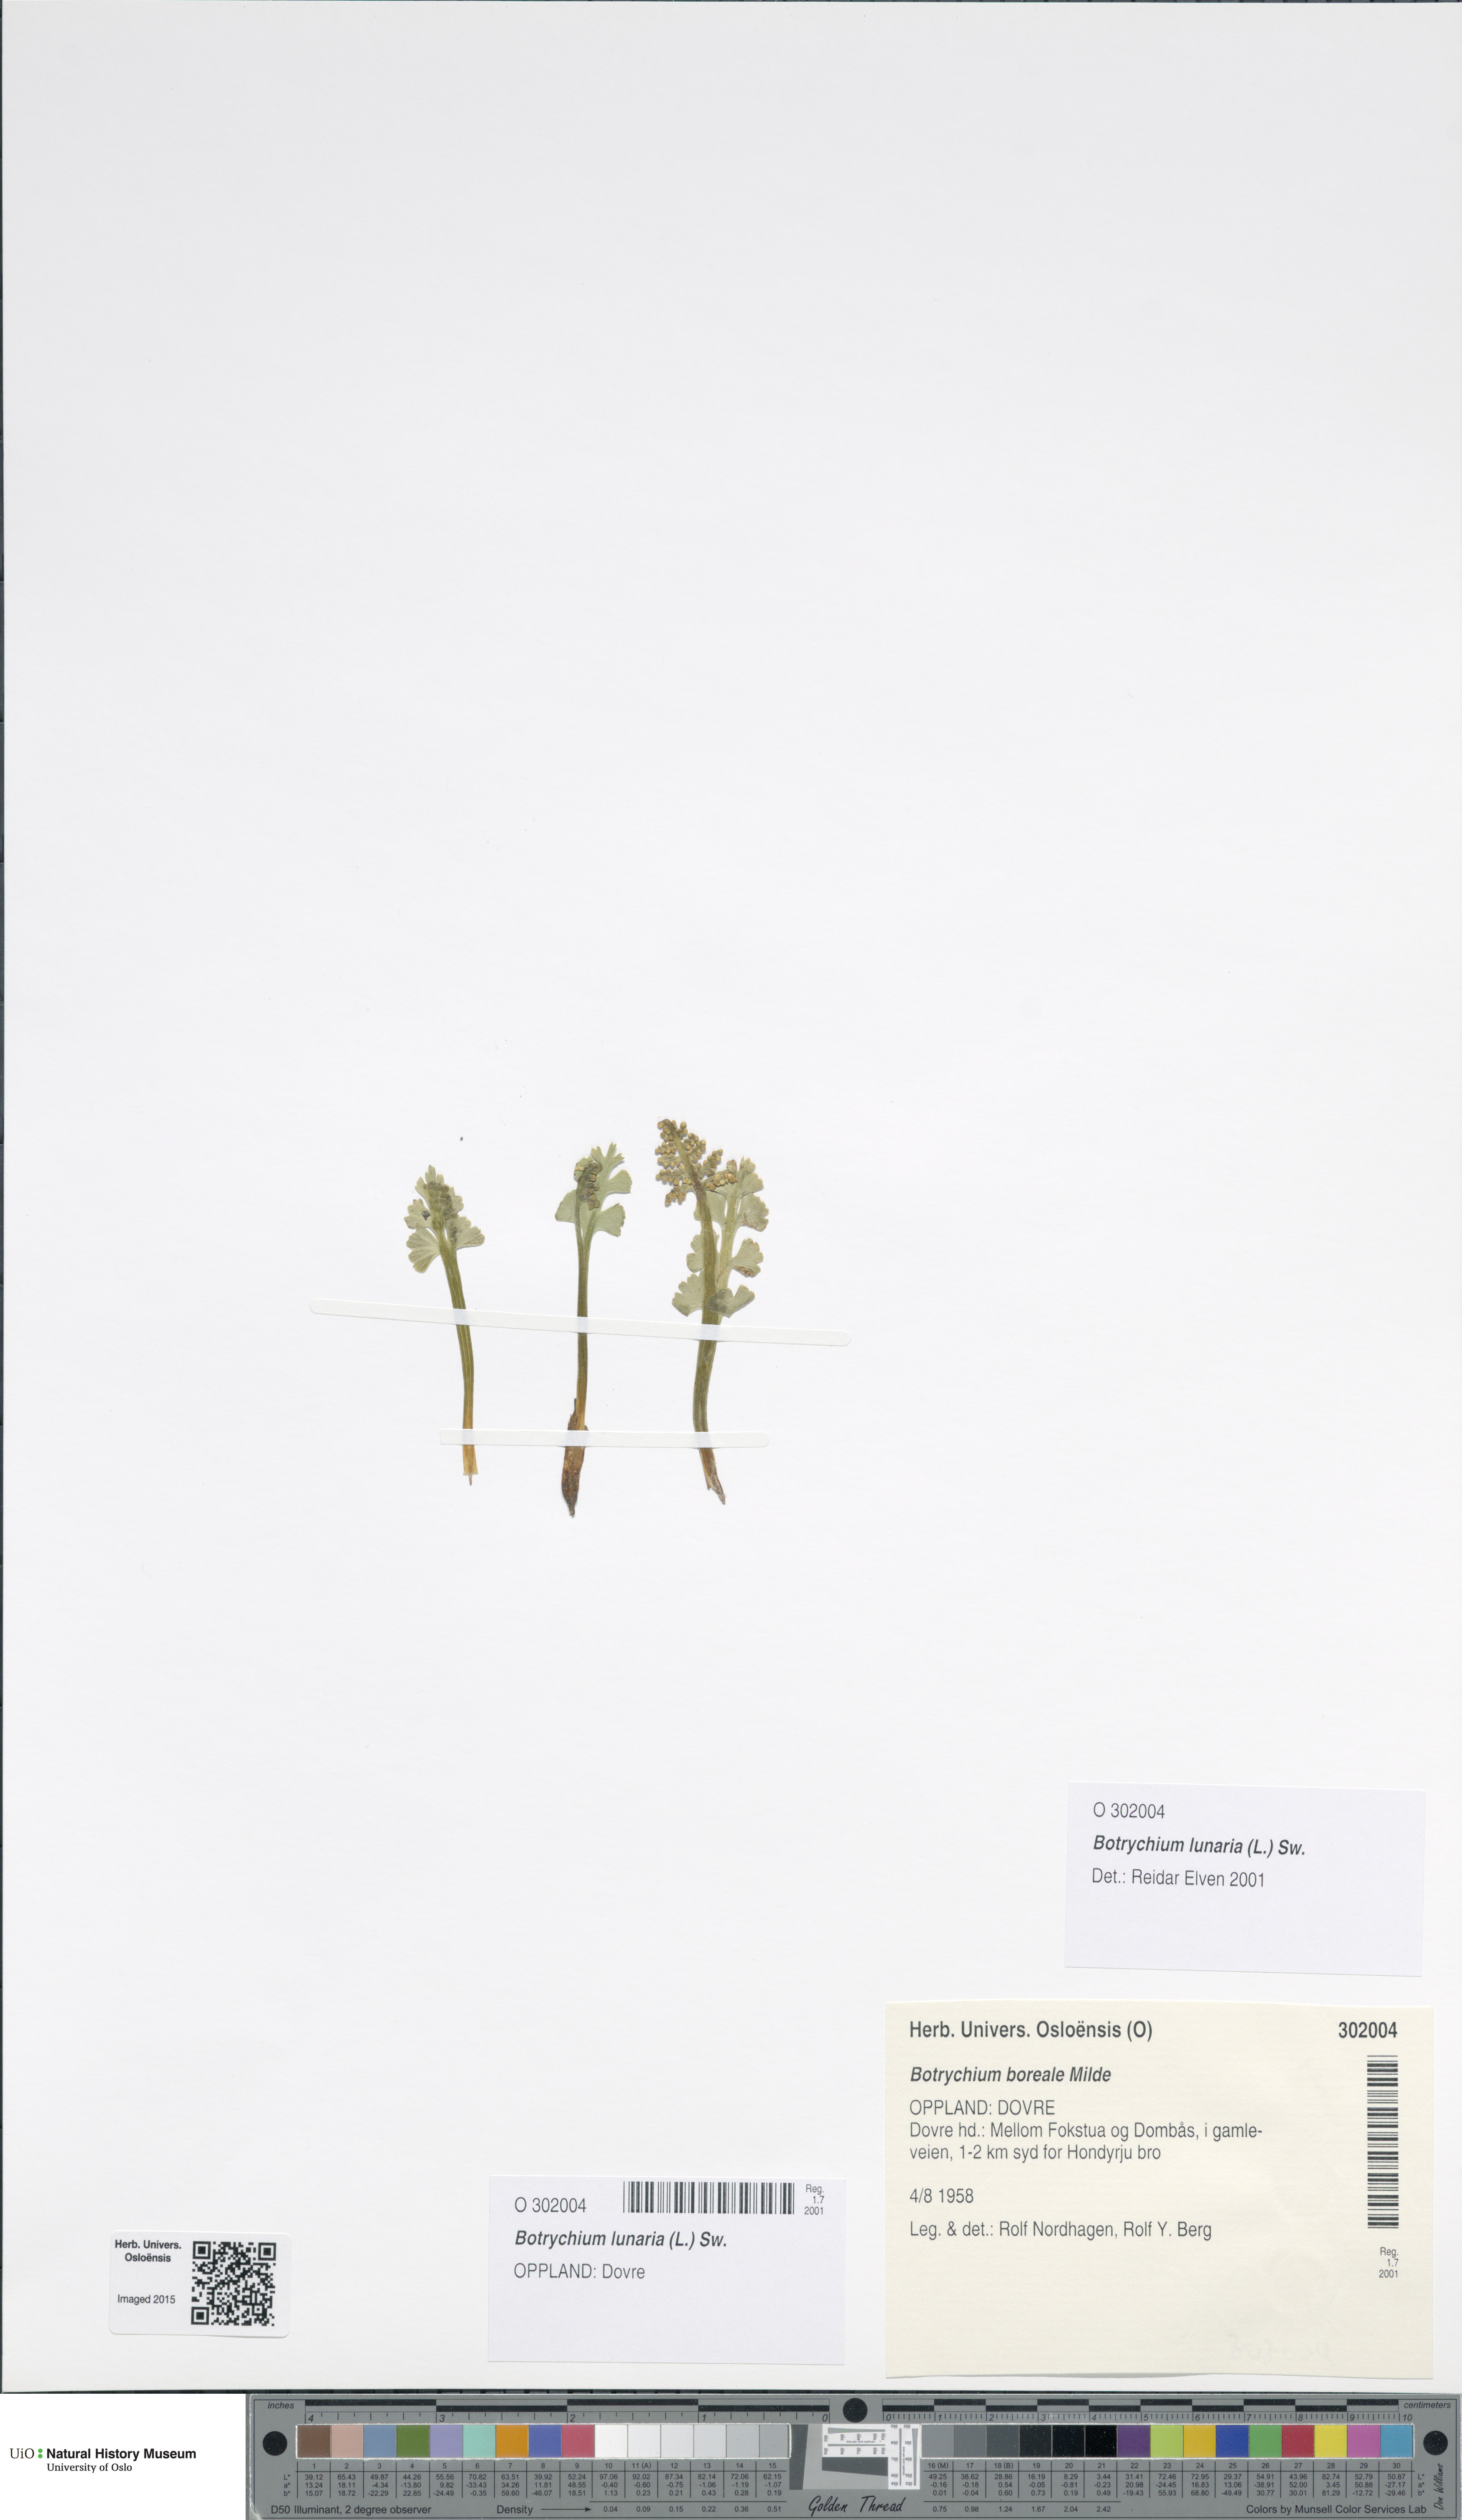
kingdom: Plantae
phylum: Tracheophyta
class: Polypodiopsida
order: Ophioglossales
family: Ophioglossaceae
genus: Botrychium
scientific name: Botrychium lunaria
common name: Moonwort
